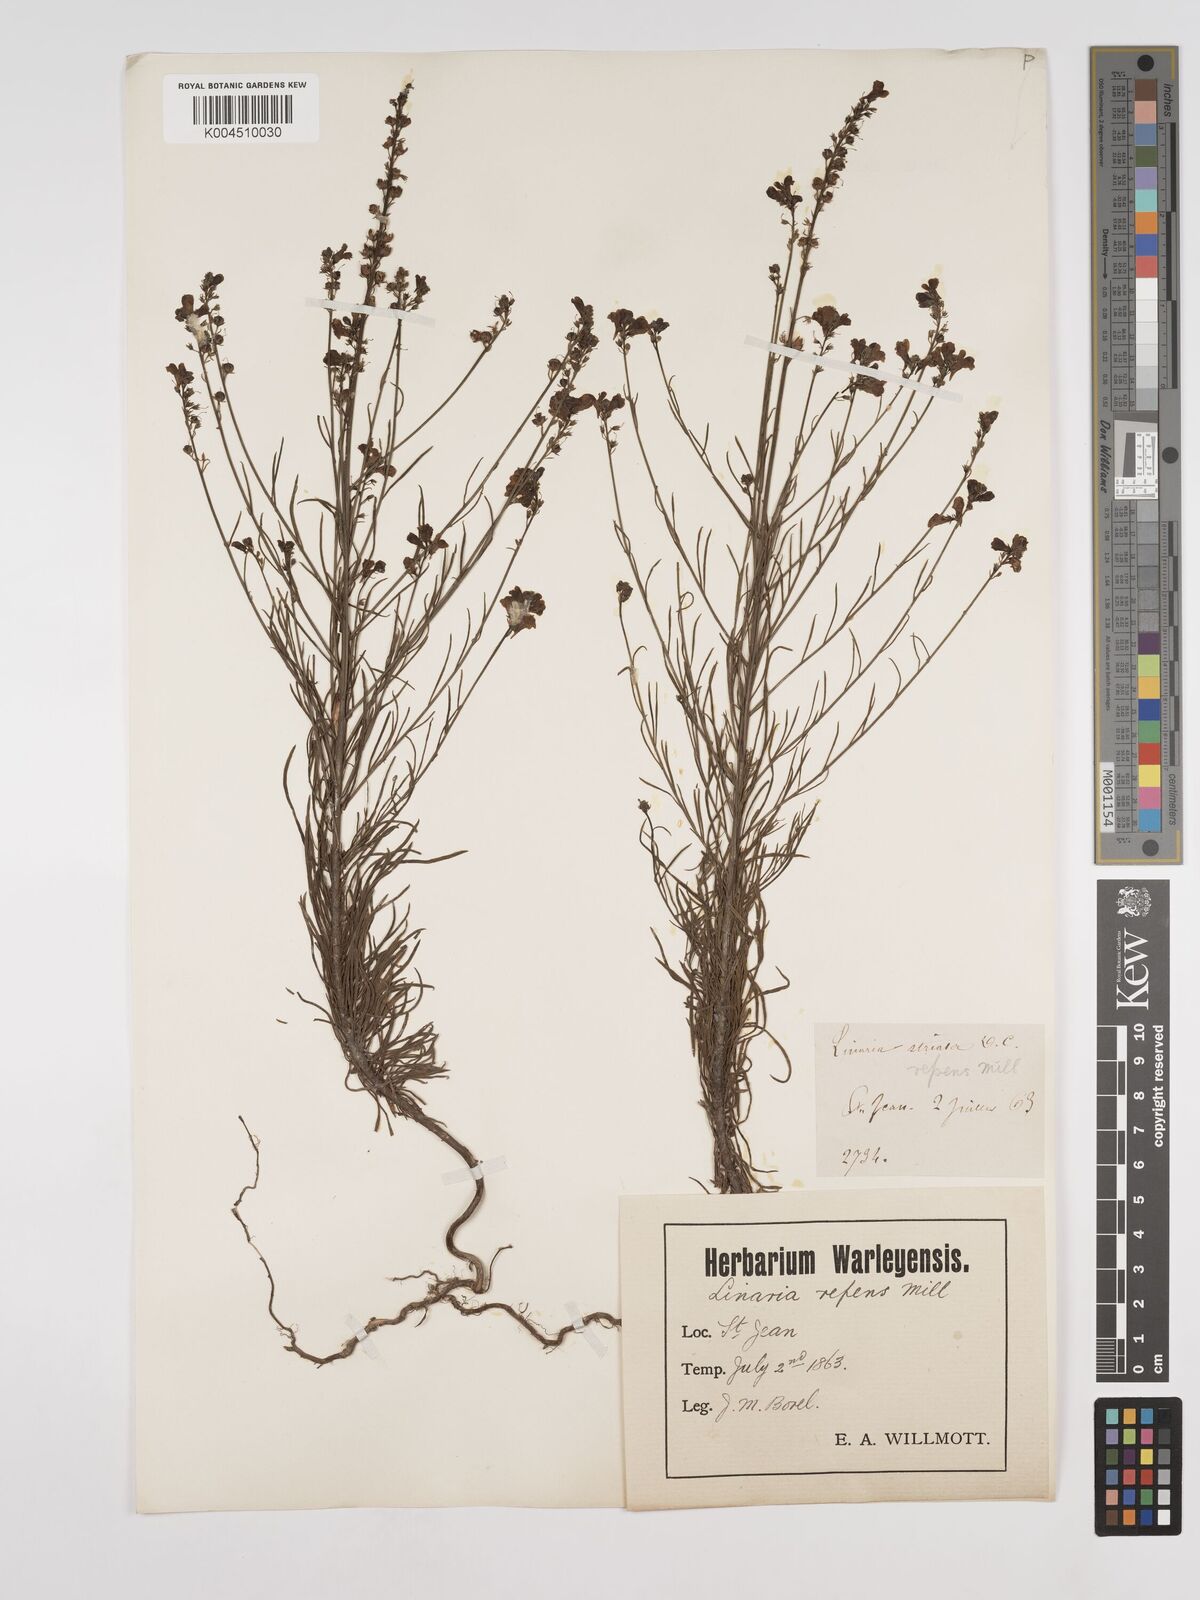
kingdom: Plantae
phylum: Tracheophyta
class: Magnoliopsida
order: Lamiales
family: Plantaginaceae
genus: Linaria
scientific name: Linaria repens
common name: Pale toadflax
